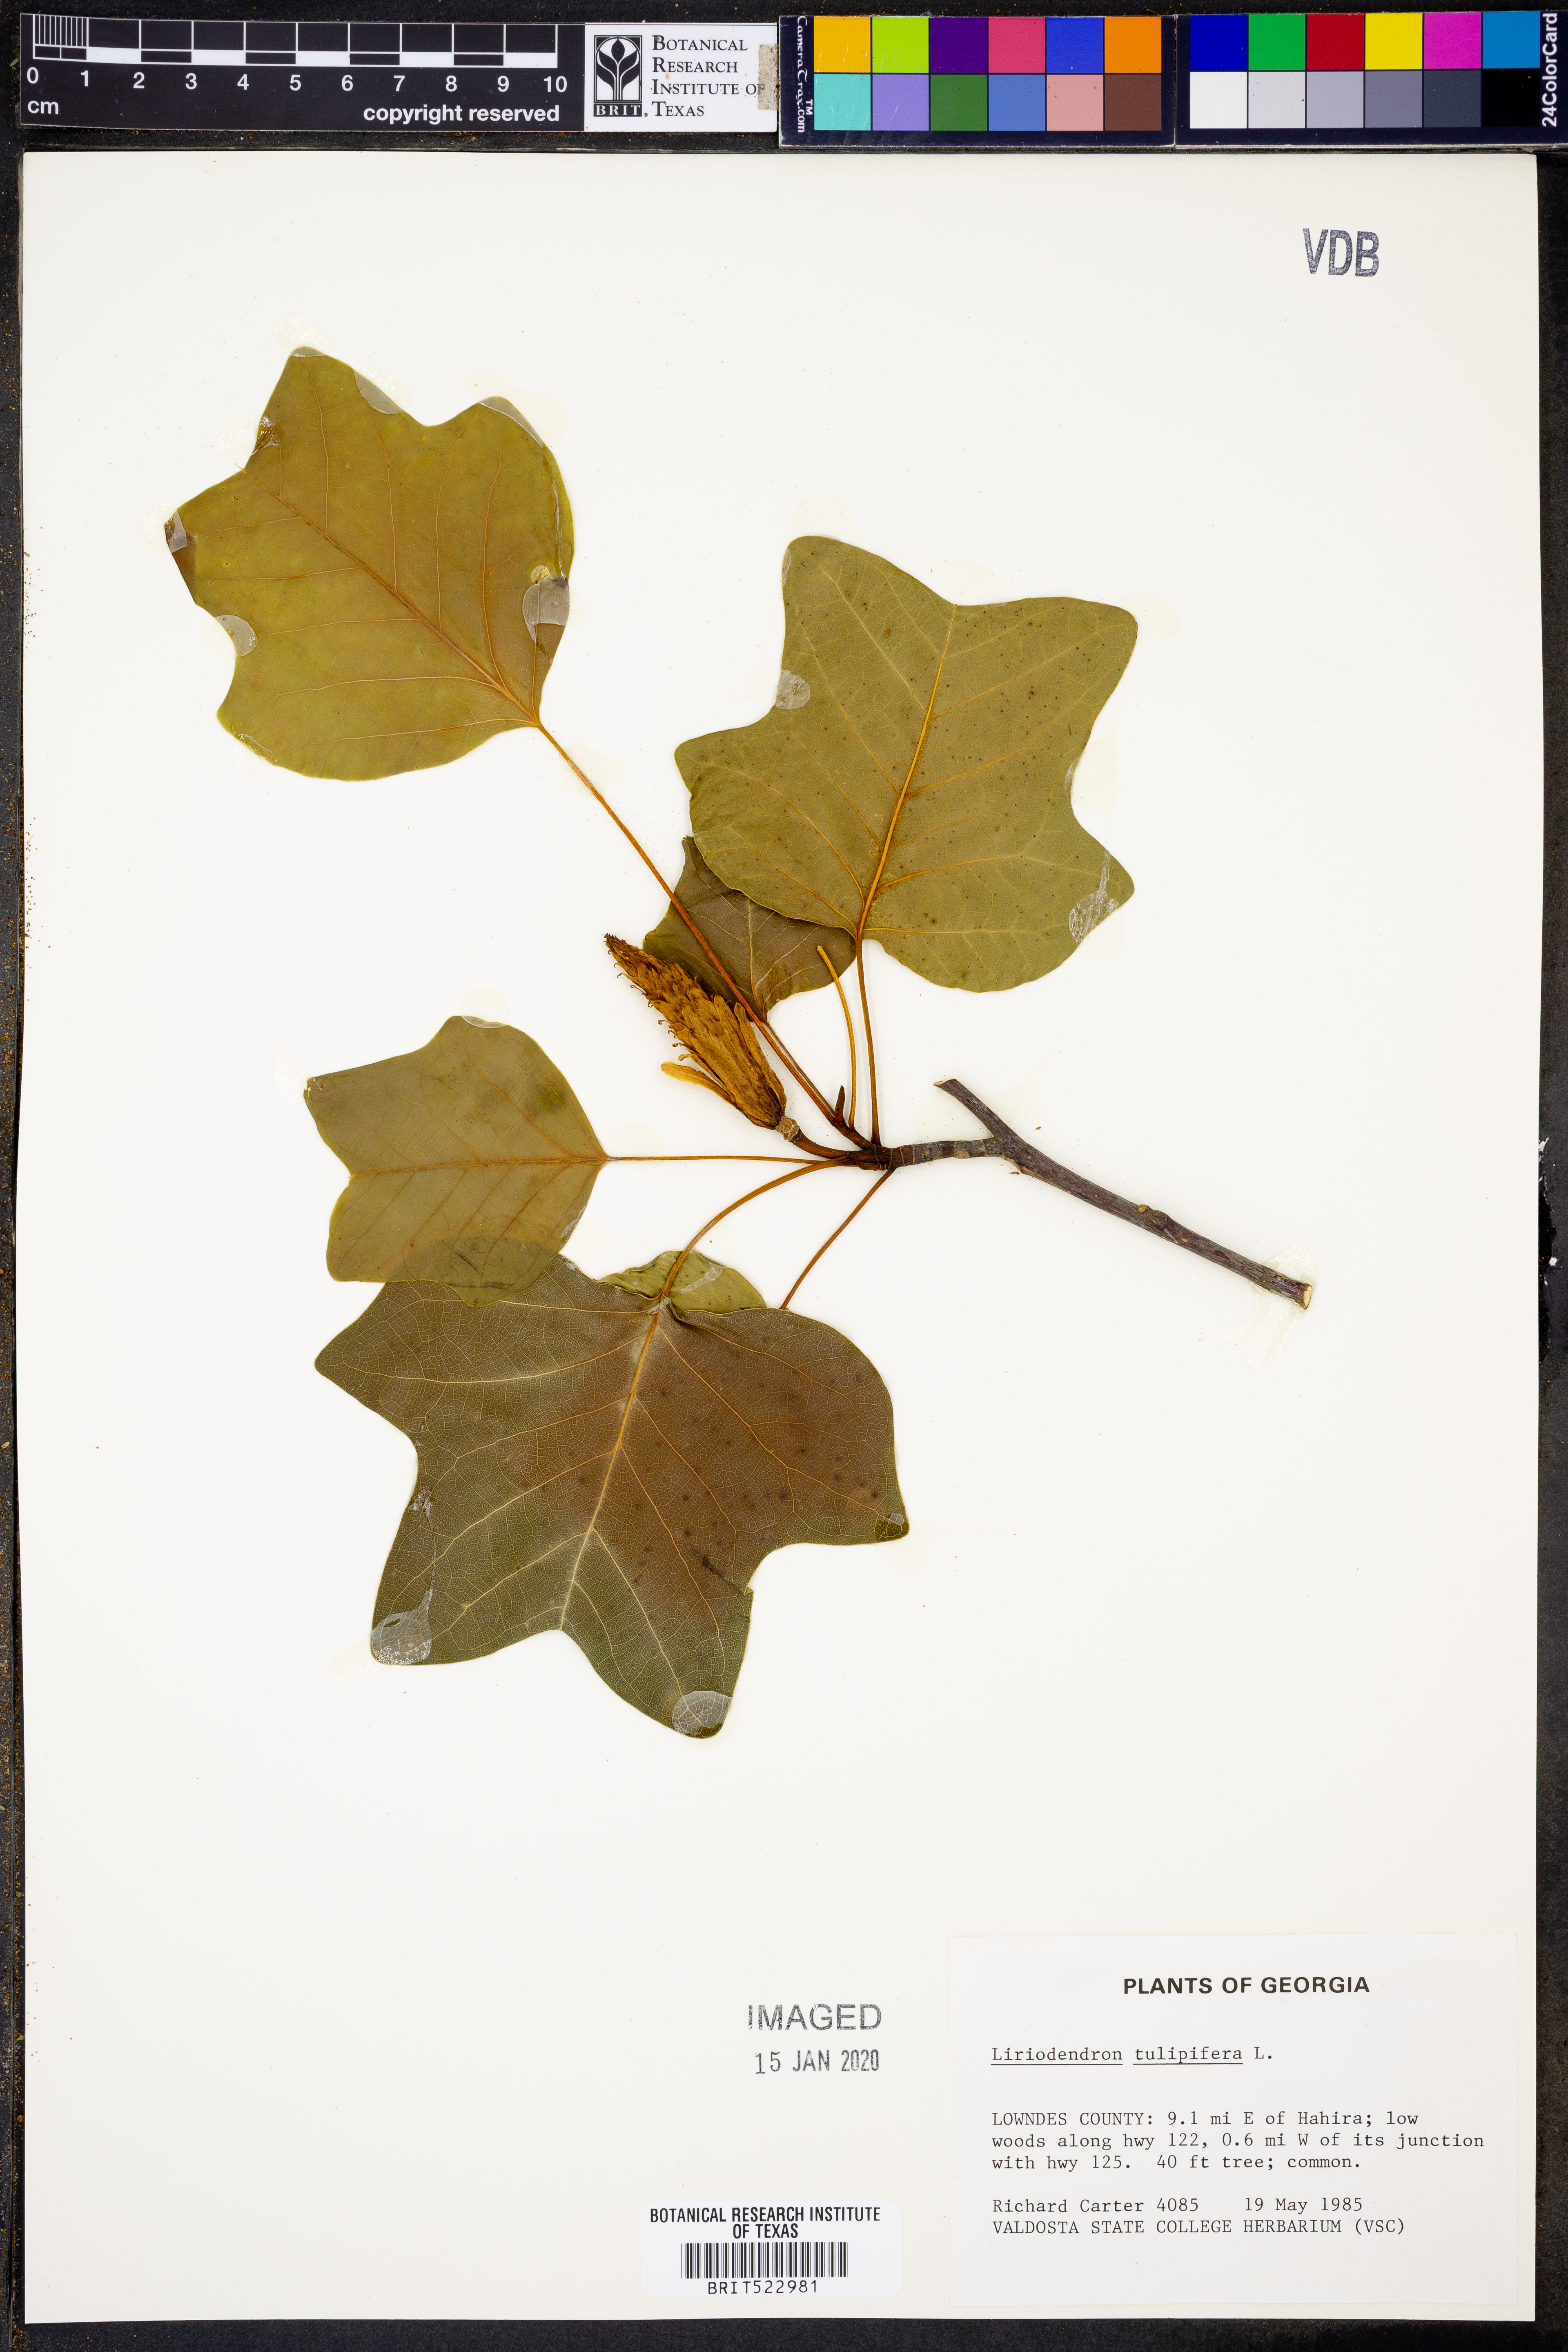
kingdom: Plantae
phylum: Tracheophyta
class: Magnoliopsida
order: Magnoliales
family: Magnoliaceae
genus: Liriodendron
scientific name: Liriodendron tulipifera
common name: Tulip tree
